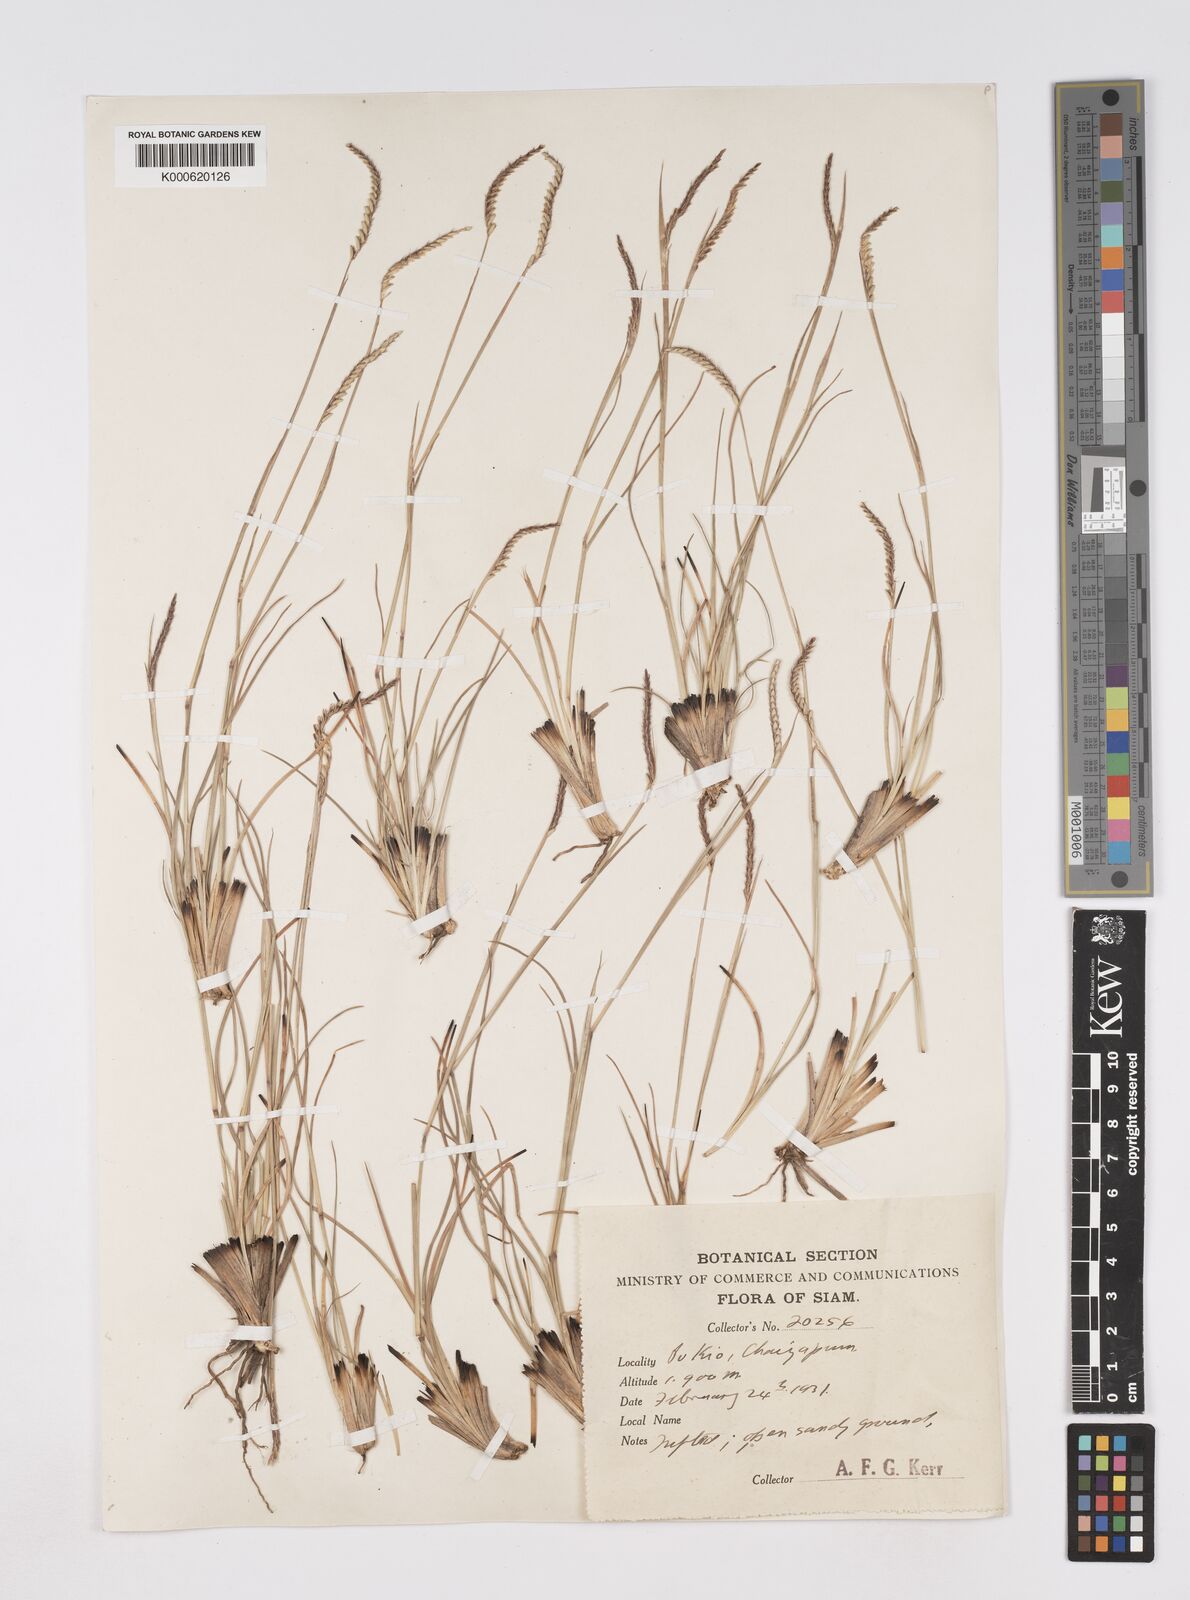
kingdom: Plantae
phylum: Tracheophyta
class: Liliopsida
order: Poales
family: Poaceae
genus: Eremochloa
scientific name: Eremochloa ciliaris
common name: Fringed centipede grass
